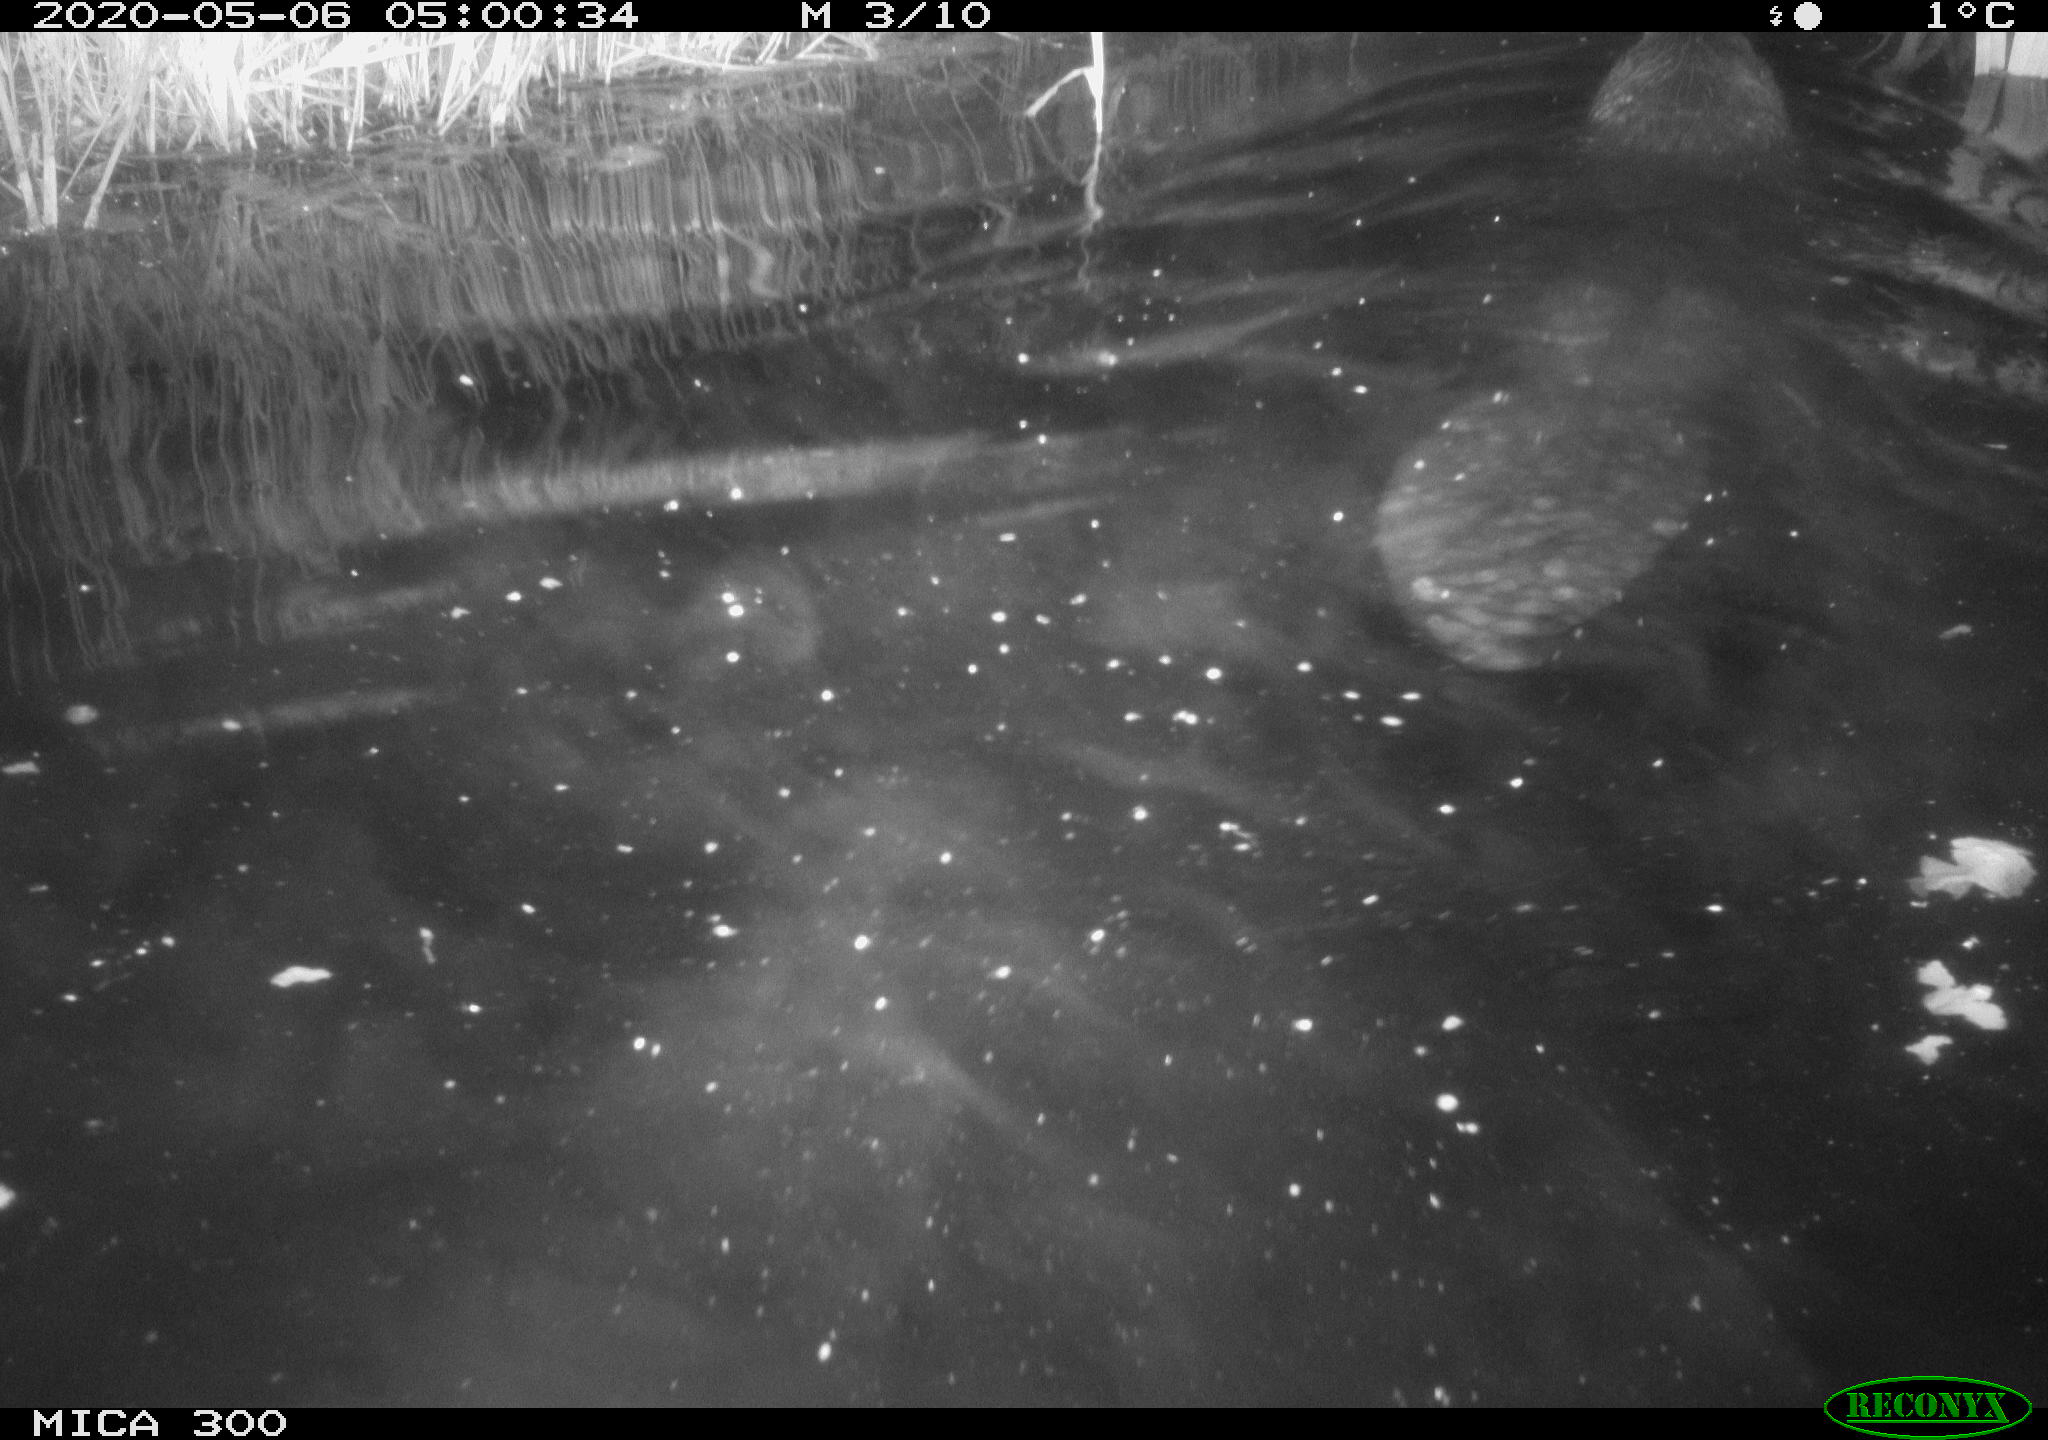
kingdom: Animalia
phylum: Chordata
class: Mammalia
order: Rodentia
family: Castoridae
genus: Castor
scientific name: Castor fiber
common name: Eurasian beaver
